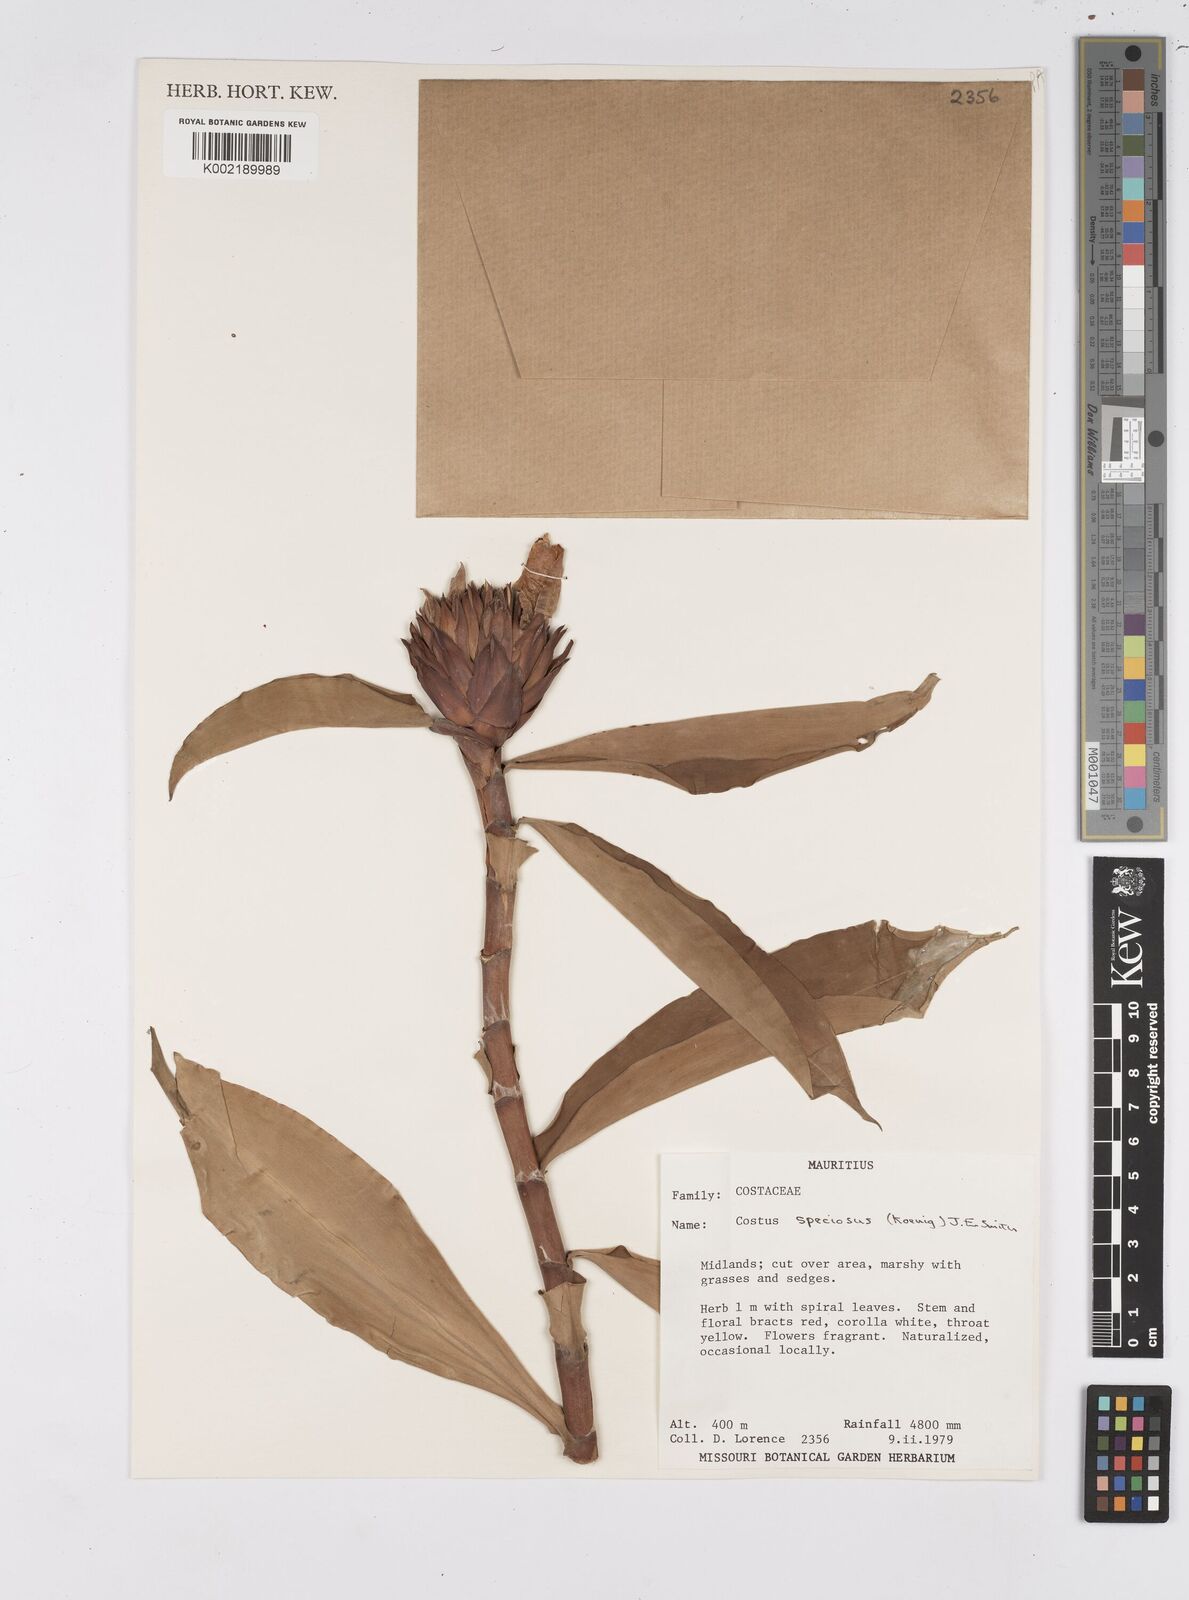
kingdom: Plantae
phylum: Tracheophyta
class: Liliopsida
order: Zingiberales
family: Costaceae
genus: Hellenia
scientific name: Hellenia speciosa
